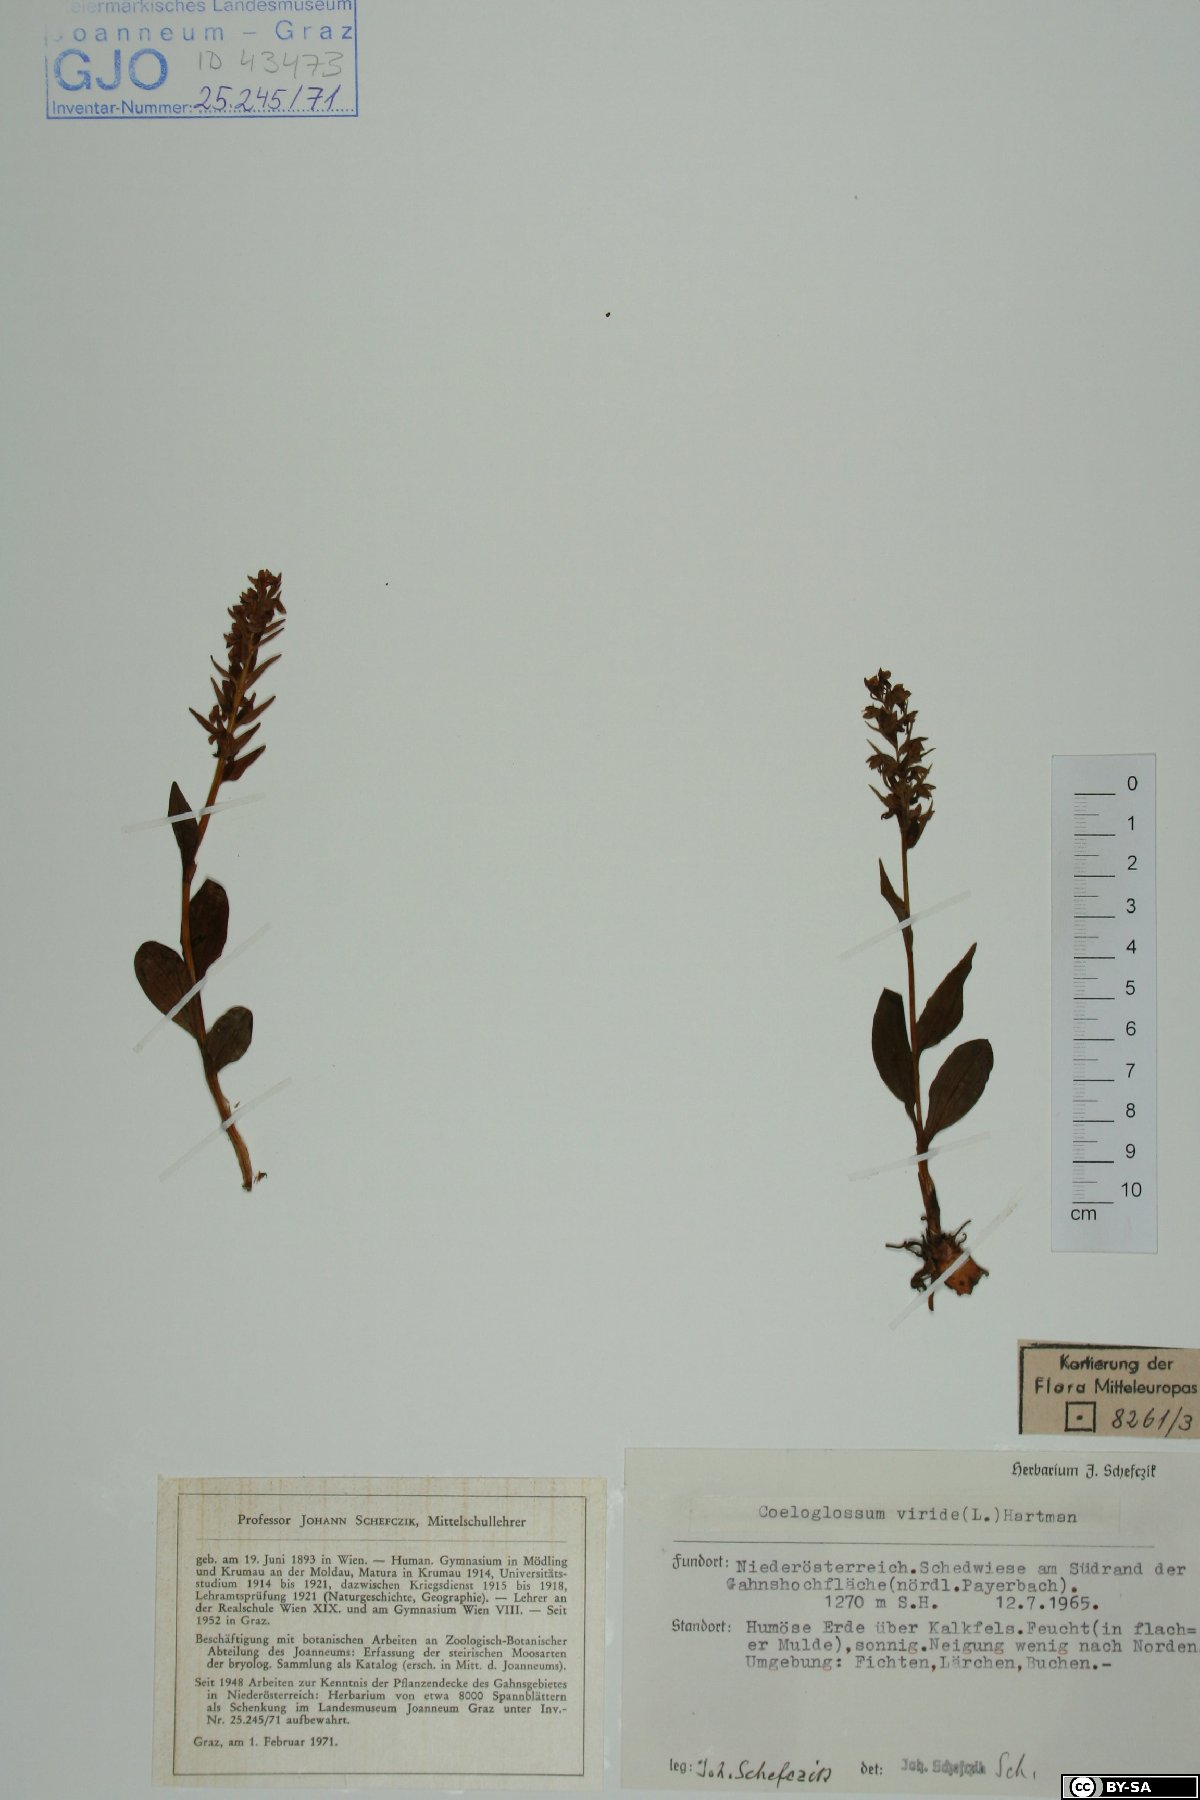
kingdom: Plantae
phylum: Tracheophyta
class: Liliopsida
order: Asparagales
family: Orchidaceae
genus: Dactylorhiza
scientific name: Dactylorhiza viridis
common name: Longbract frog orchid
